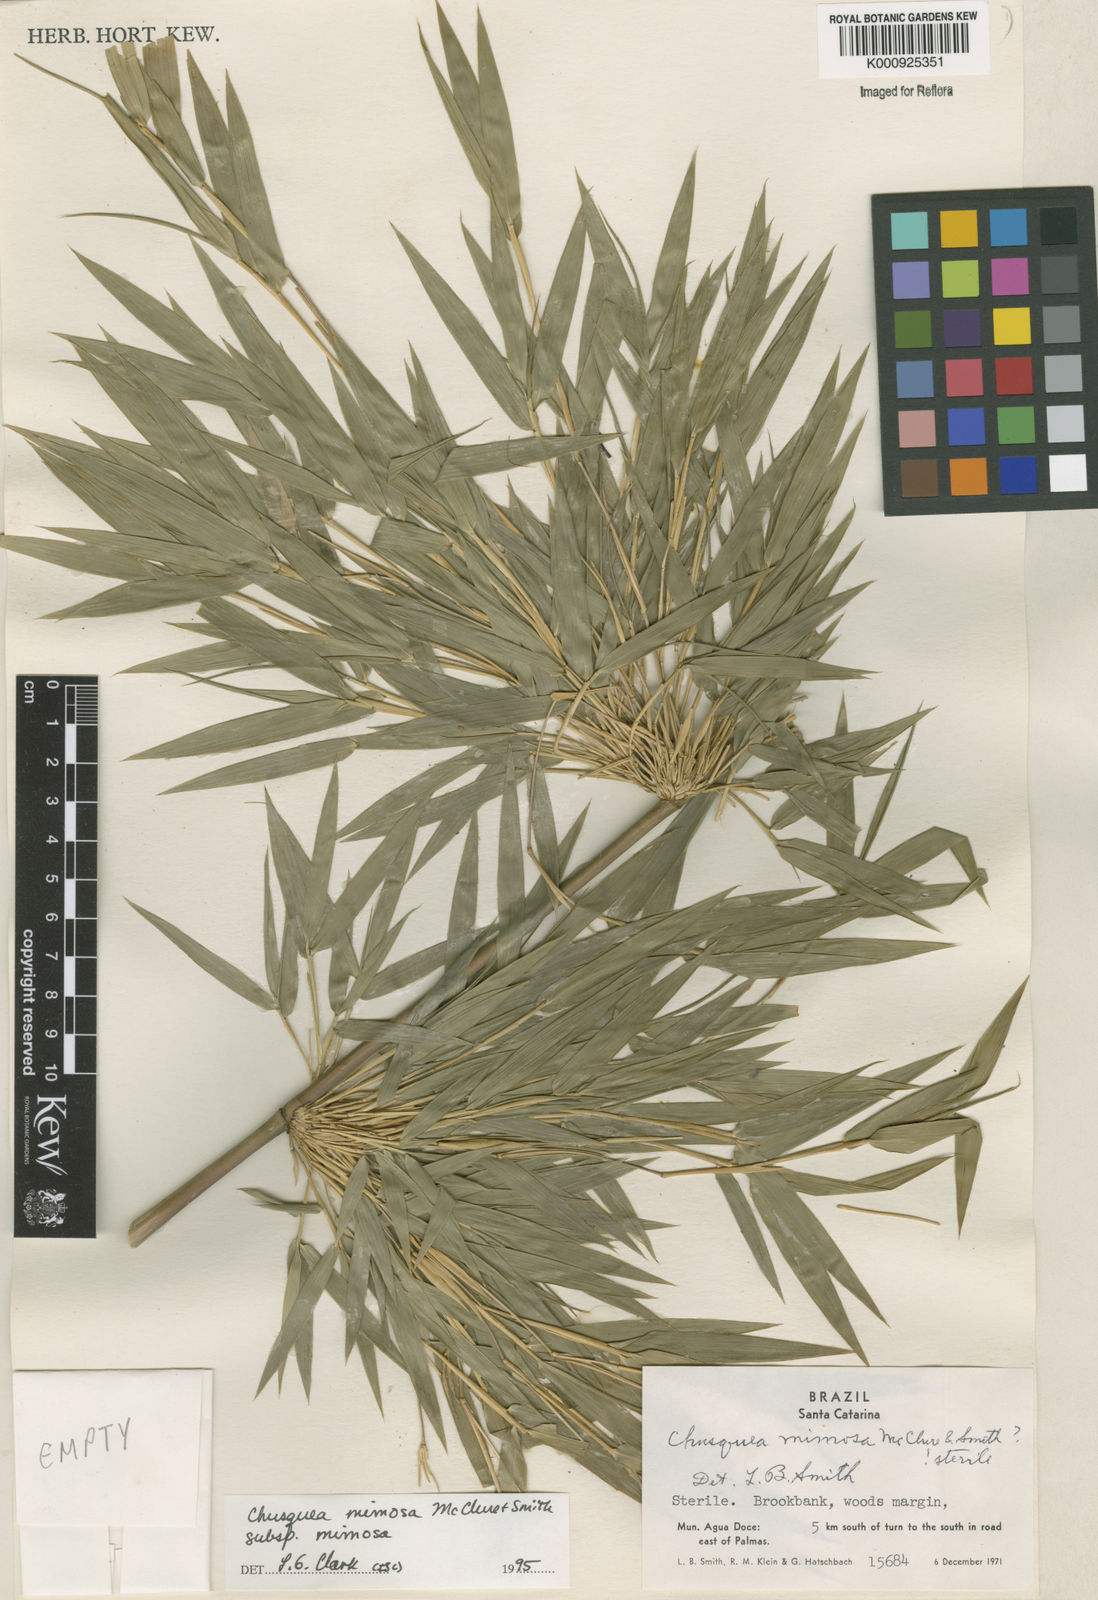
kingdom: Plantae
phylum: Tracheophyta
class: Liliopsida
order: Poales
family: Poaceae
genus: Chusquea
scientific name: Chusquea mimosa
